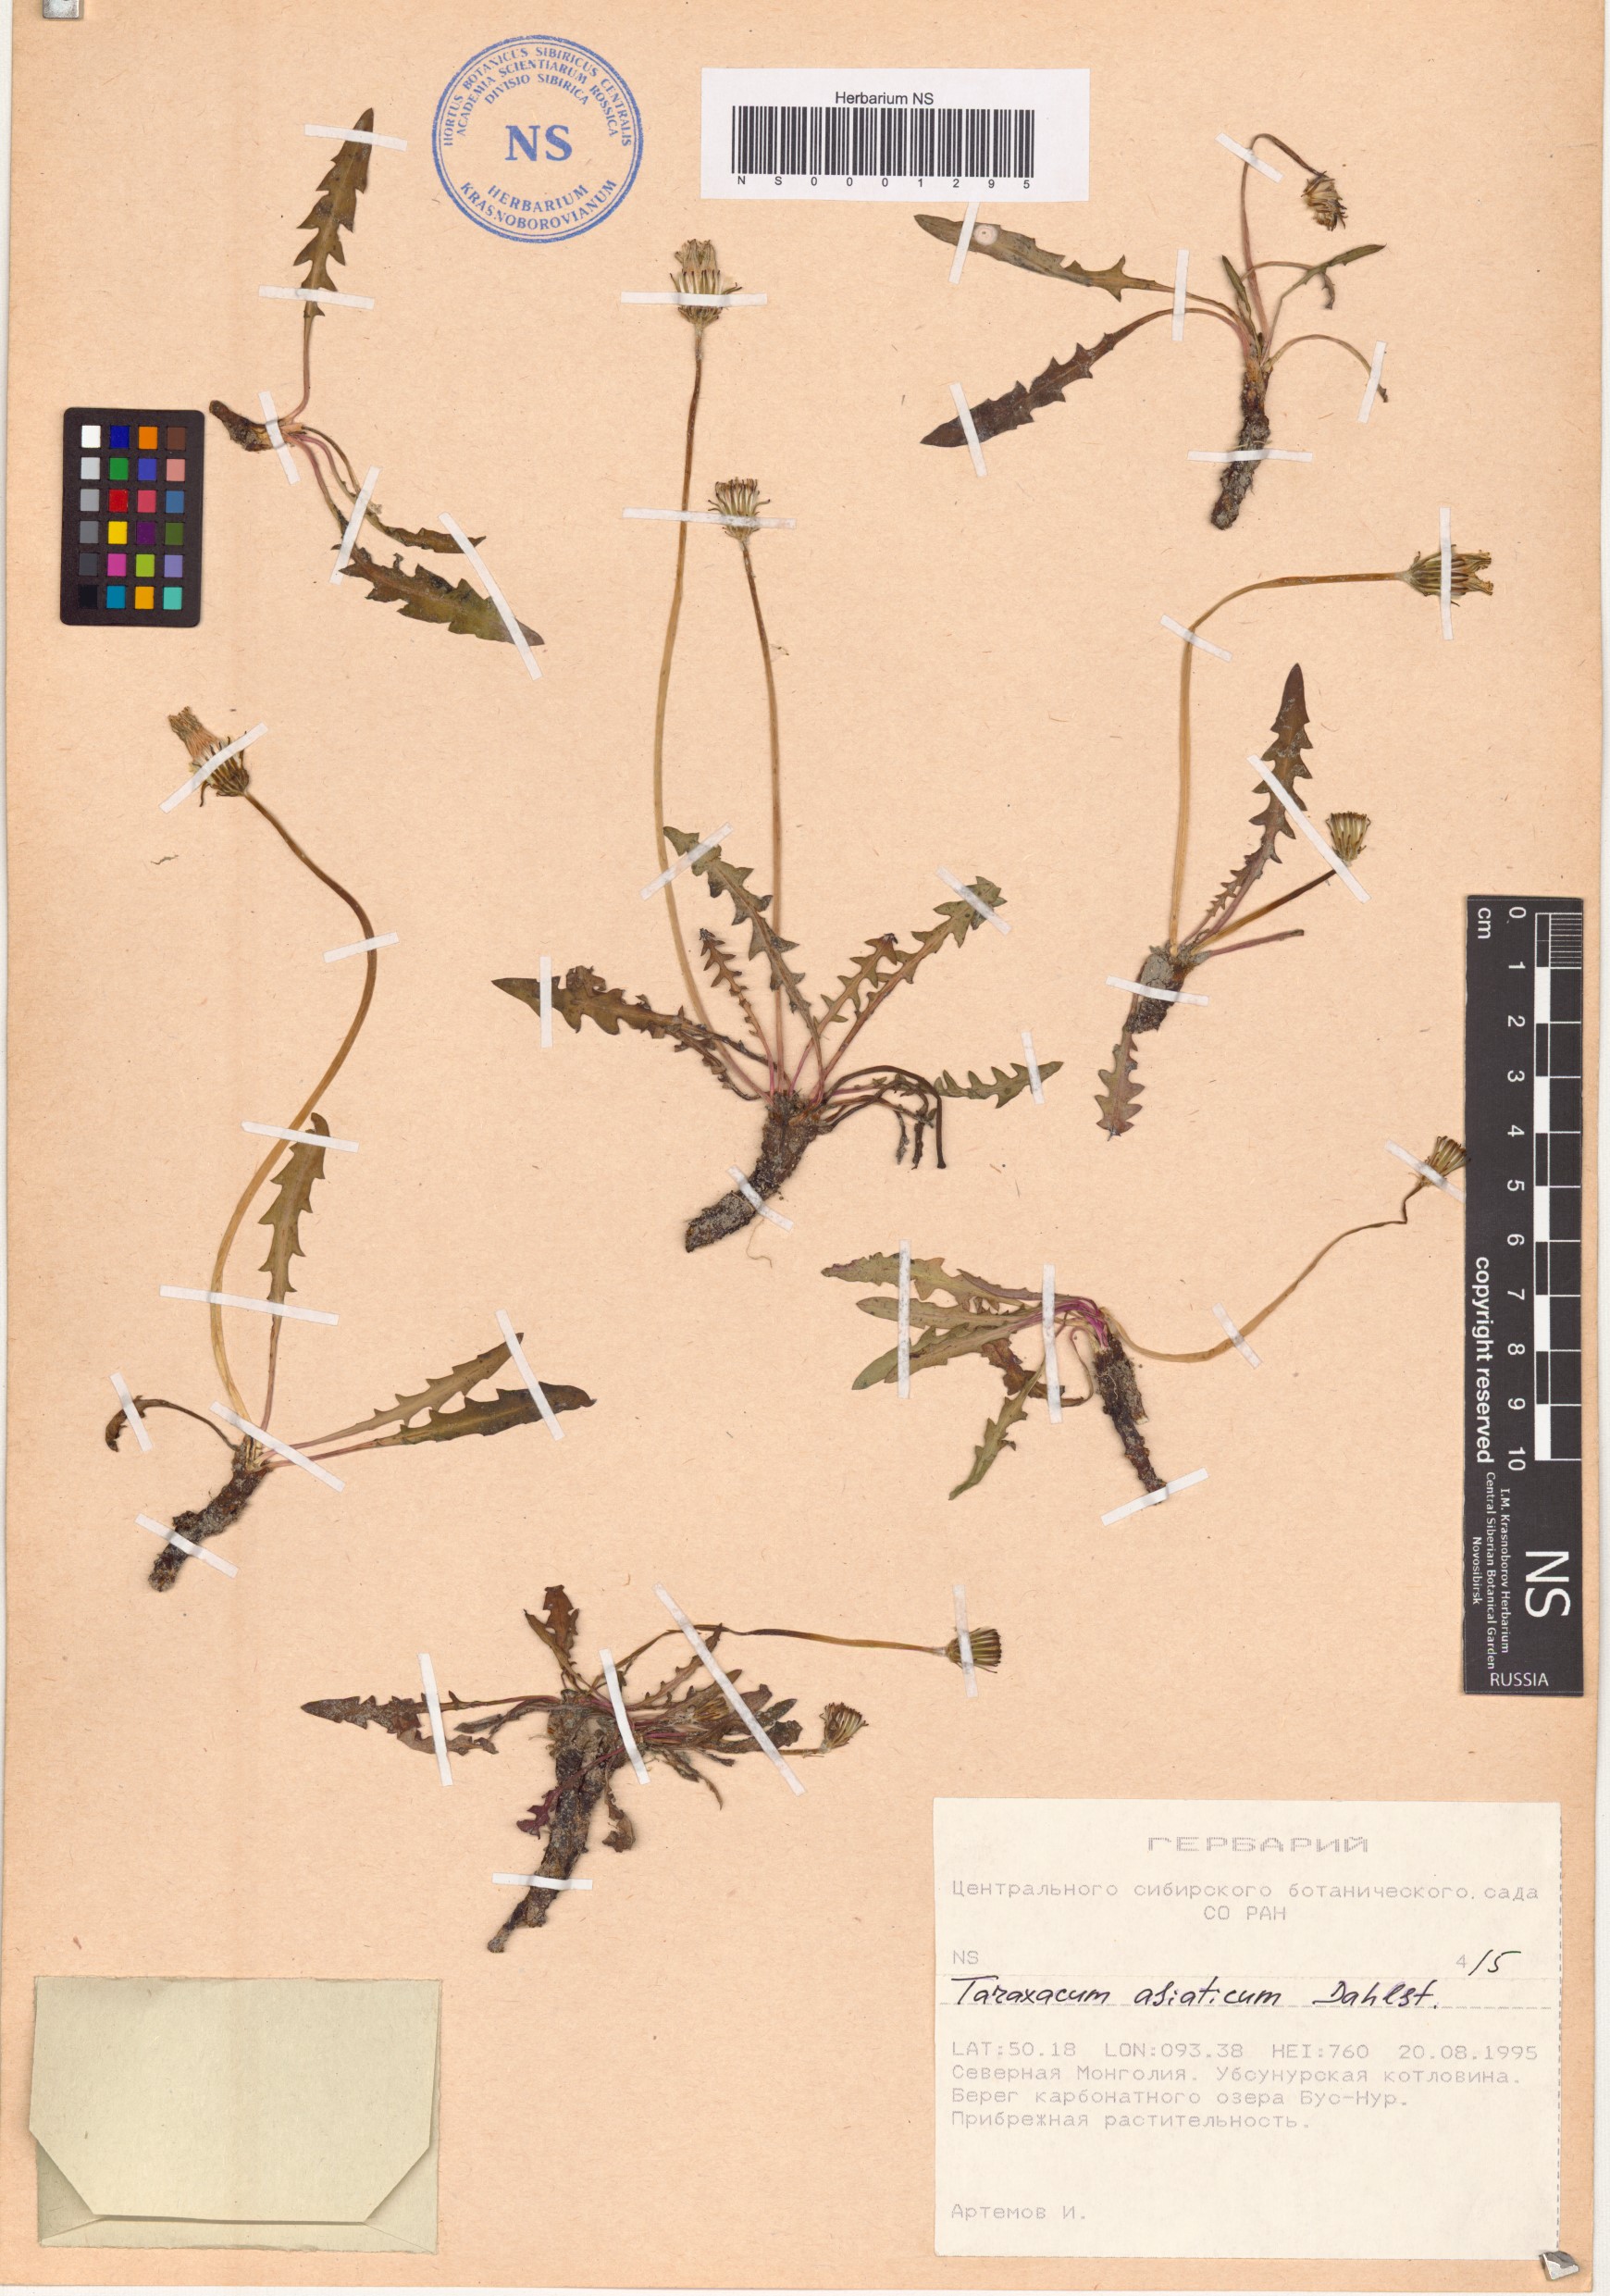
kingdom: Plantae
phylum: Tracheophyta
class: Magnoliopsida
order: Asterales
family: Asteraceae
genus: Taraxacum
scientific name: Taraxacum scariosum
